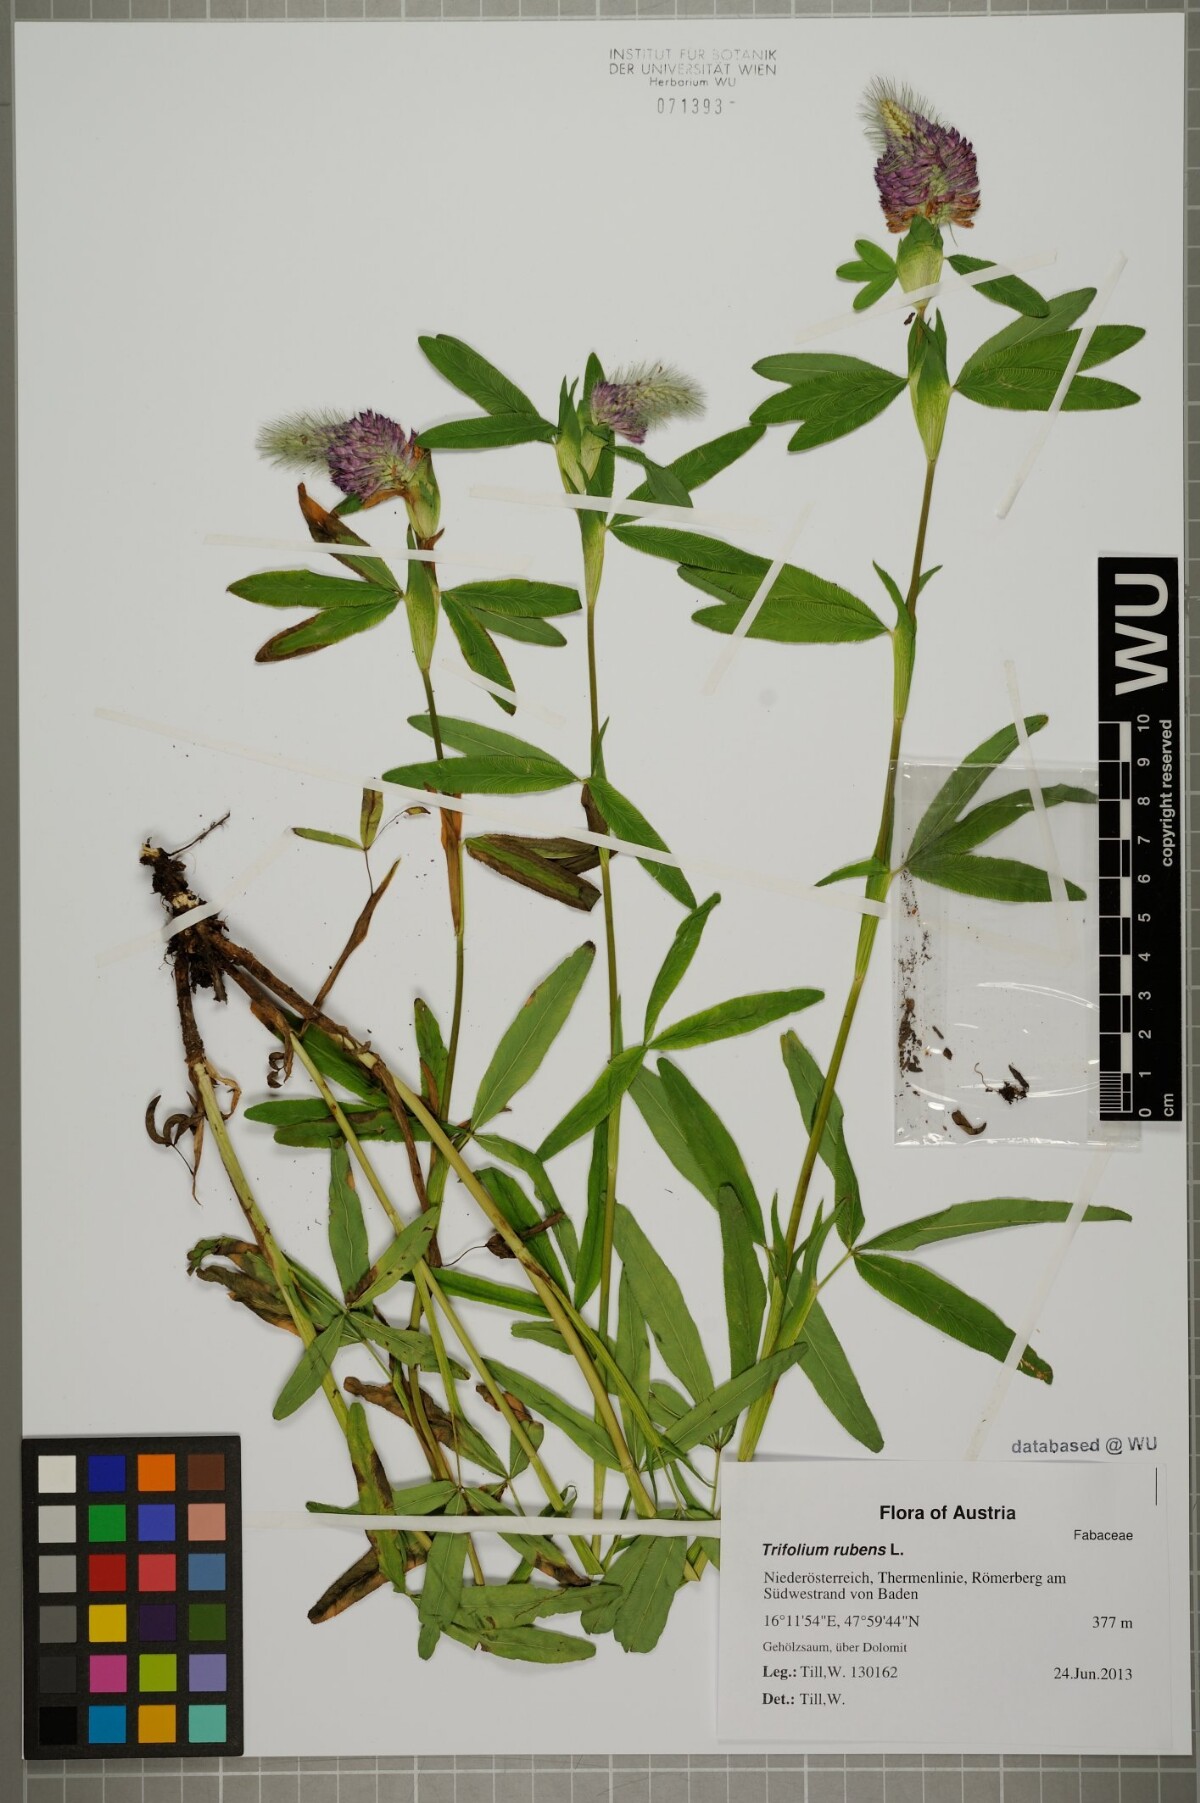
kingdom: Plantae
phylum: Tracheophyta
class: Magnoliopsida
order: Fabales
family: Fabaceae
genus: Trifolium
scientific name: Trifolium rubens
